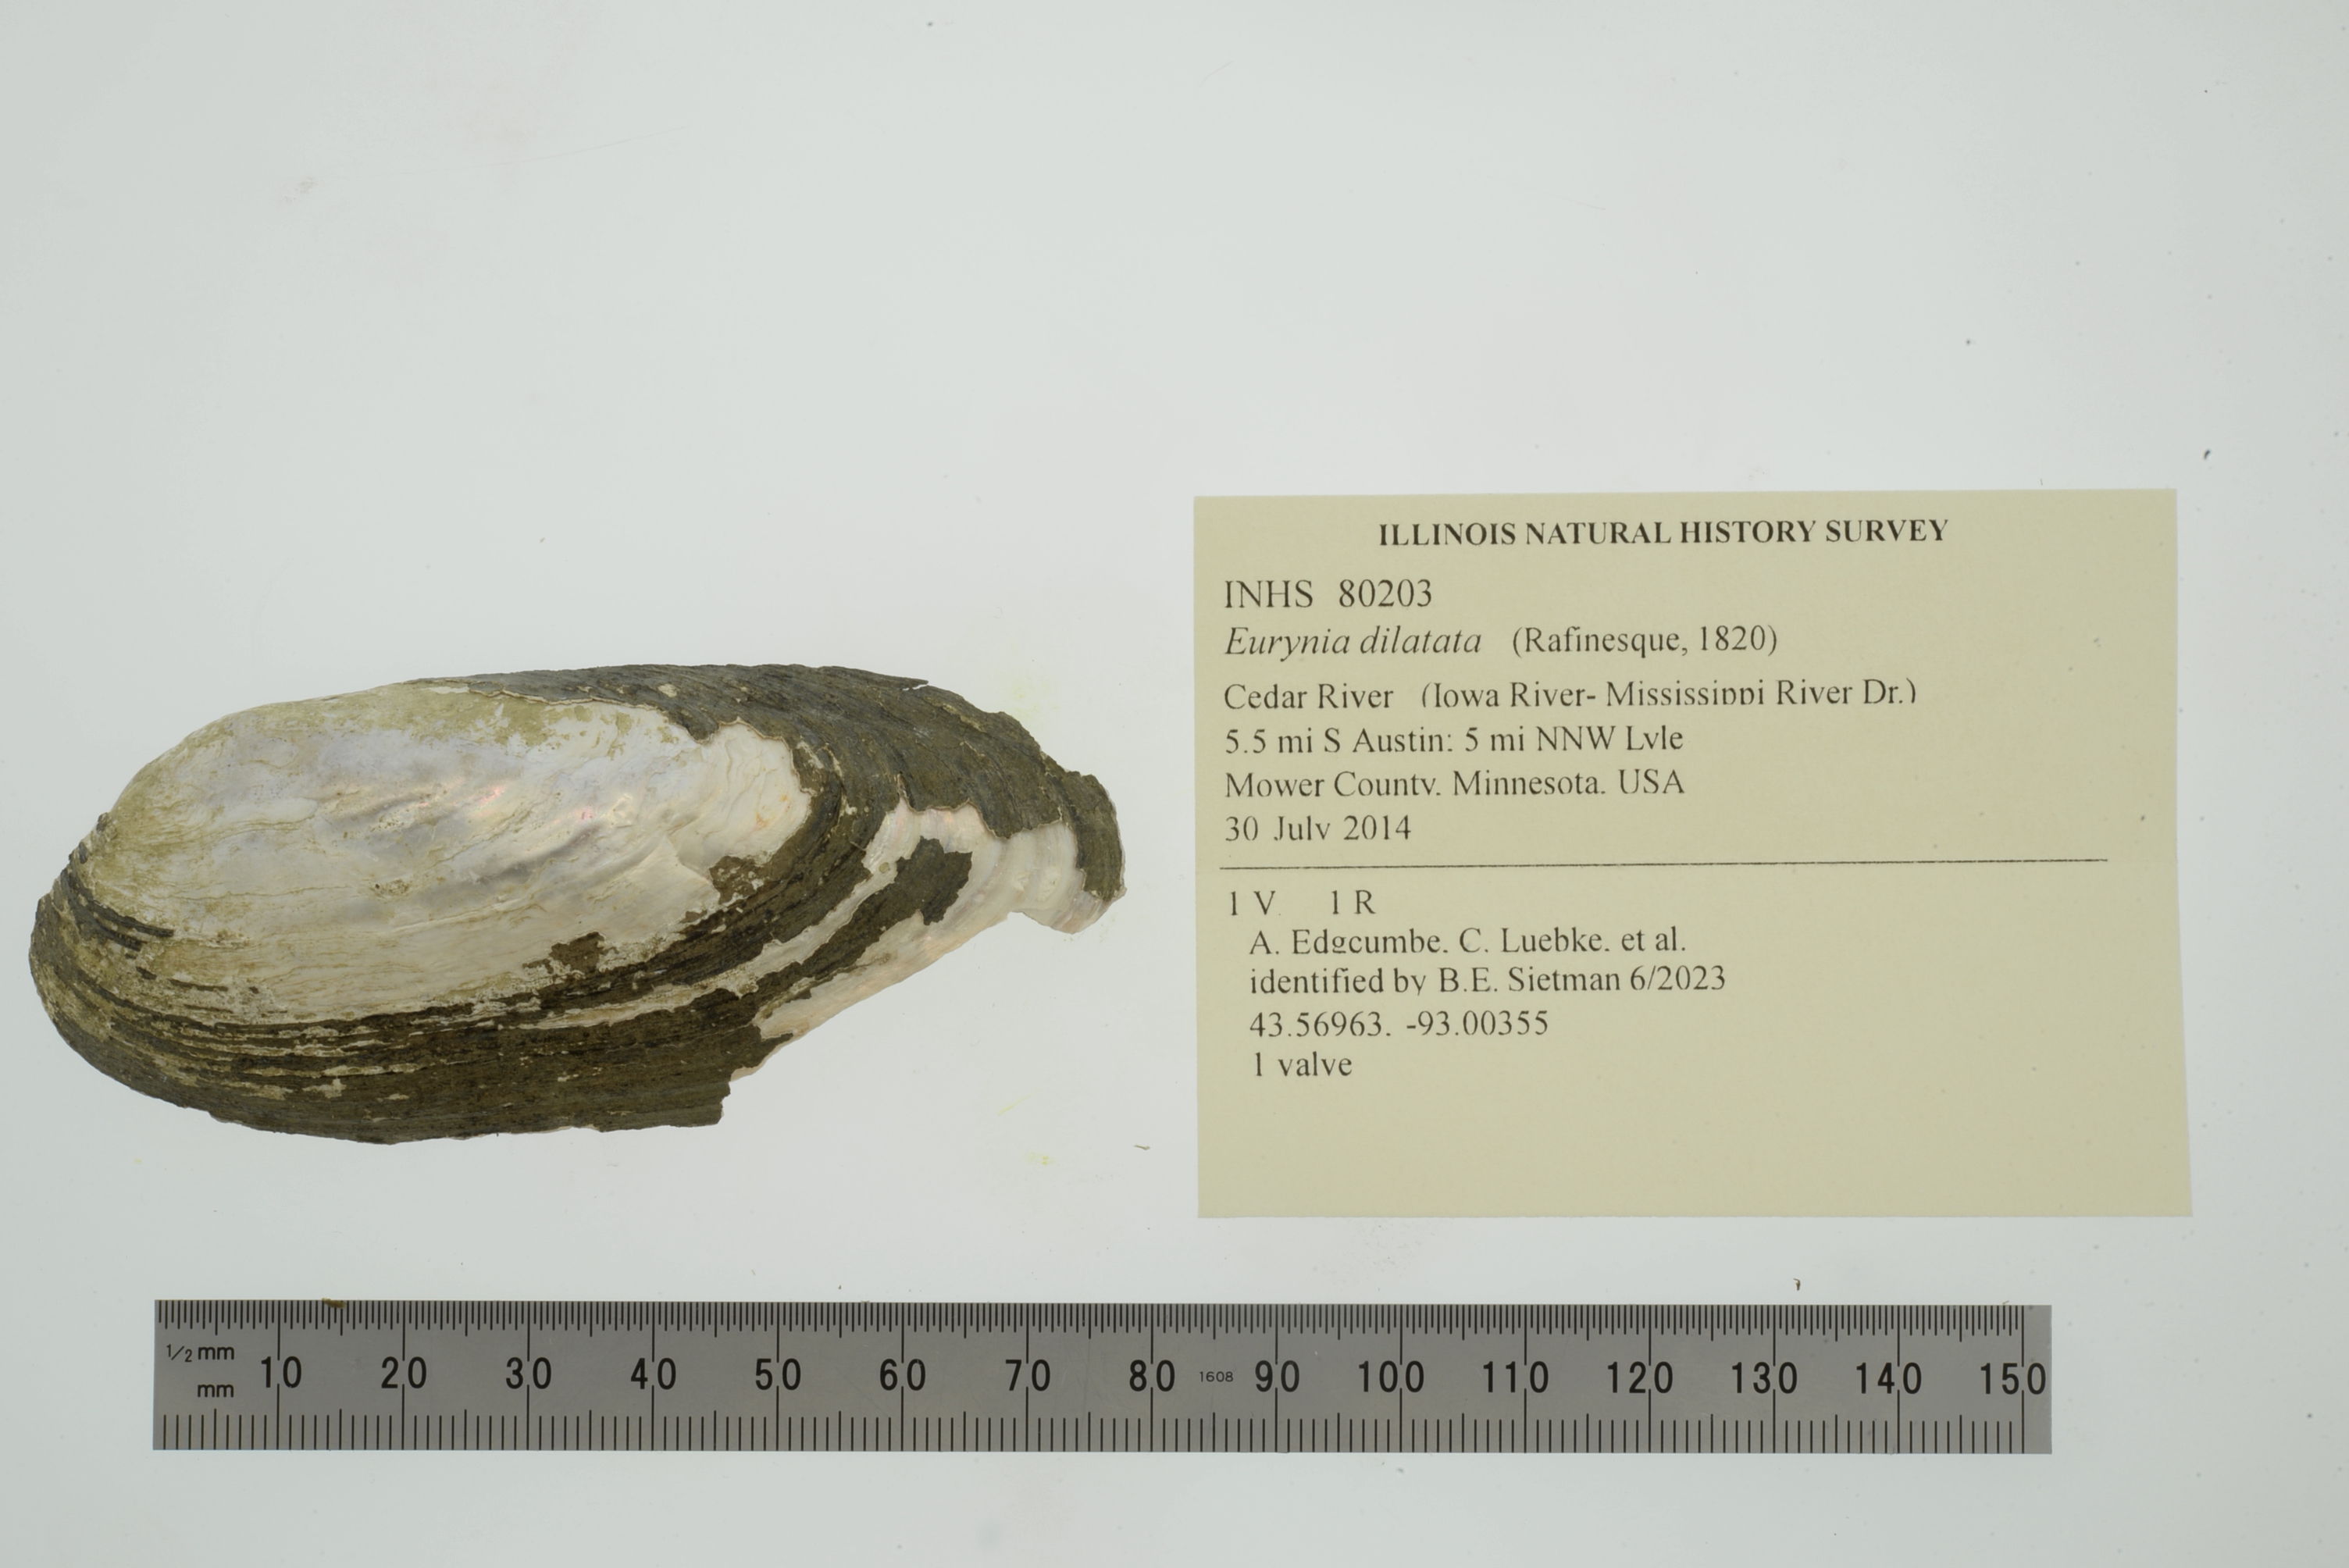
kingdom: Animalia
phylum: Mollusca
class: Bivalvia
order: Unionida
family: Unionidae
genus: Eurynia
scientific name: Eurynia dilatata
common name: Spike
